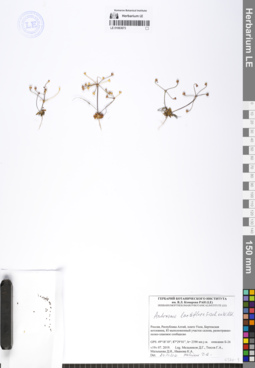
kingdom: Plantae
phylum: Tracheophyta
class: Magnoliopsida
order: Ericales
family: Primulaceae
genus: Androsace
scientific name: Androsace lactiflora
